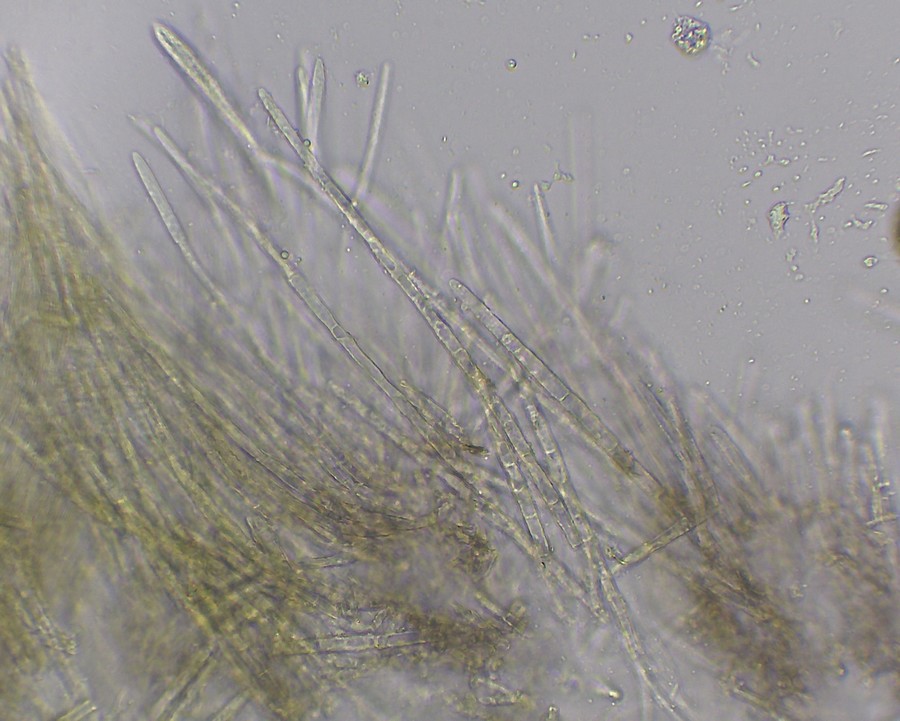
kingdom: Fungi
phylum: Ascomycota
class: Leotiomycetes
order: Helotiales
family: Lachnaceae
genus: Lachnum
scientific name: Lachnum sulphureum
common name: svovlhåret frynseskive
